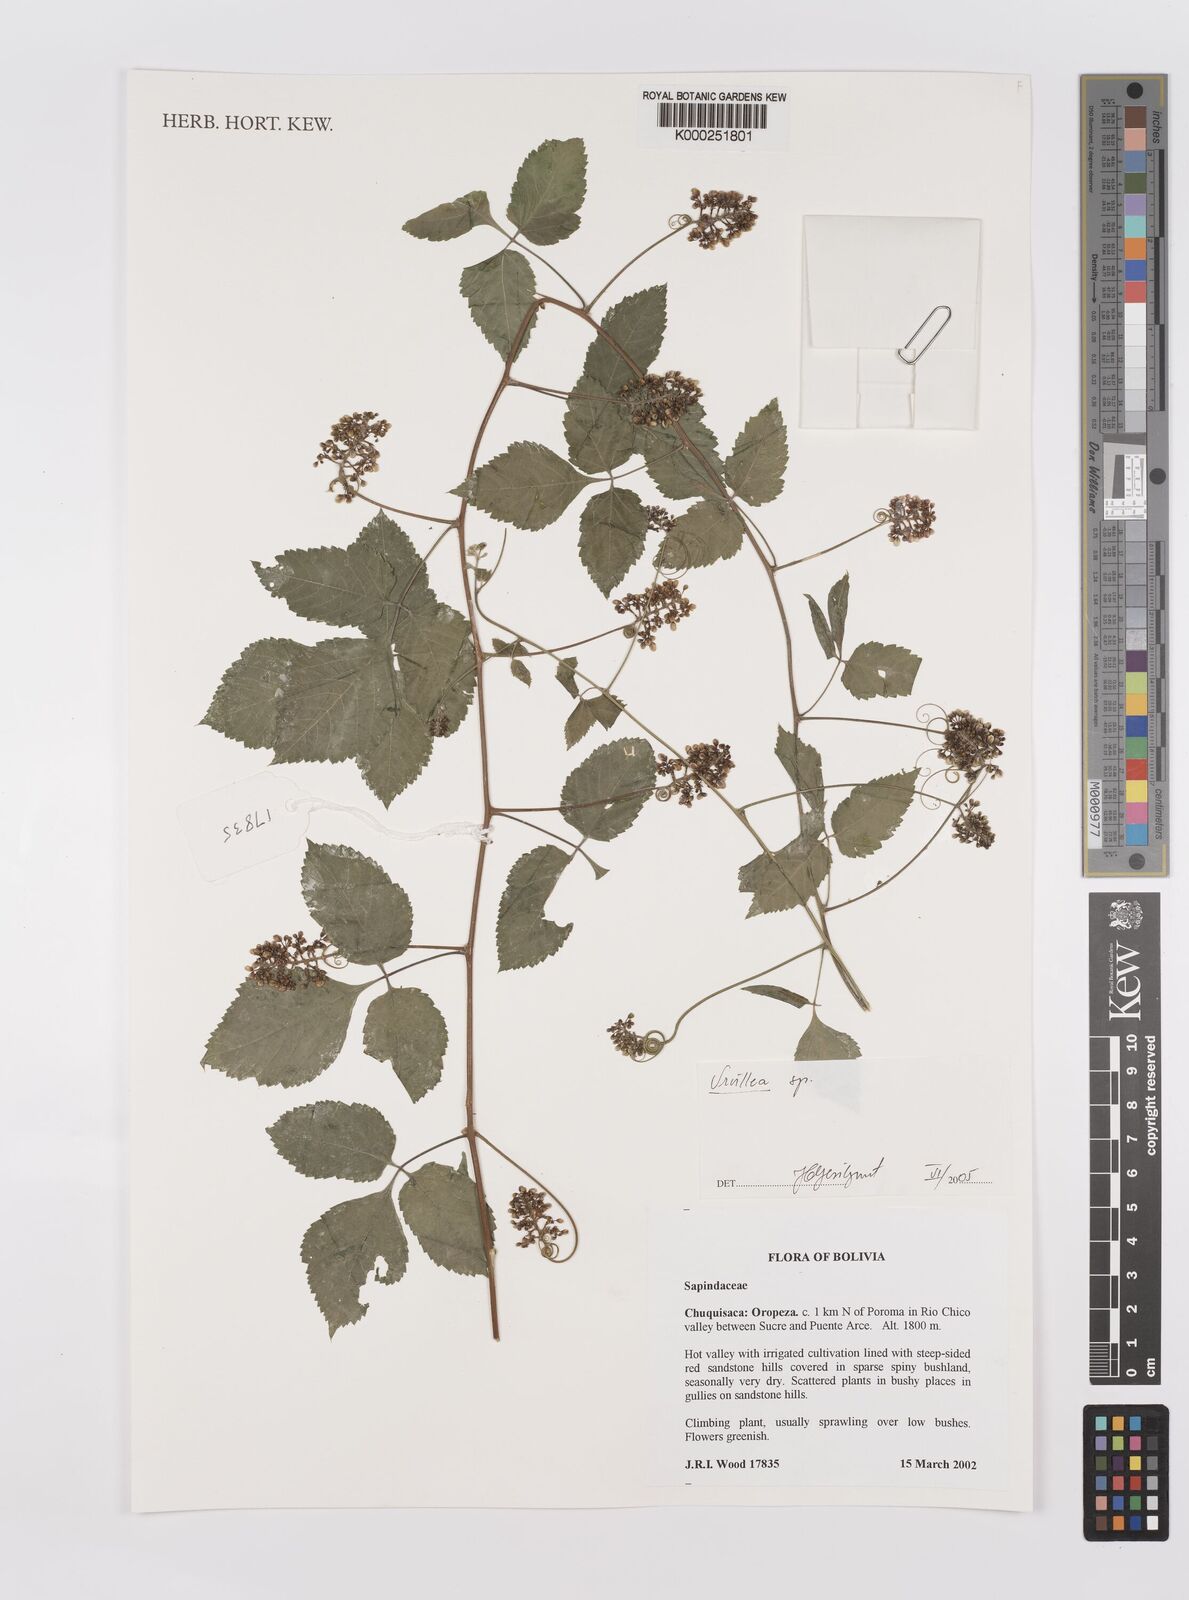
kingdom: Plantae
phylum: Tracheophyta
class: Magnoliopsida
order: Sapindales
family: Sapindaceae
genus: Urvillea
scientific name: Urvillea
